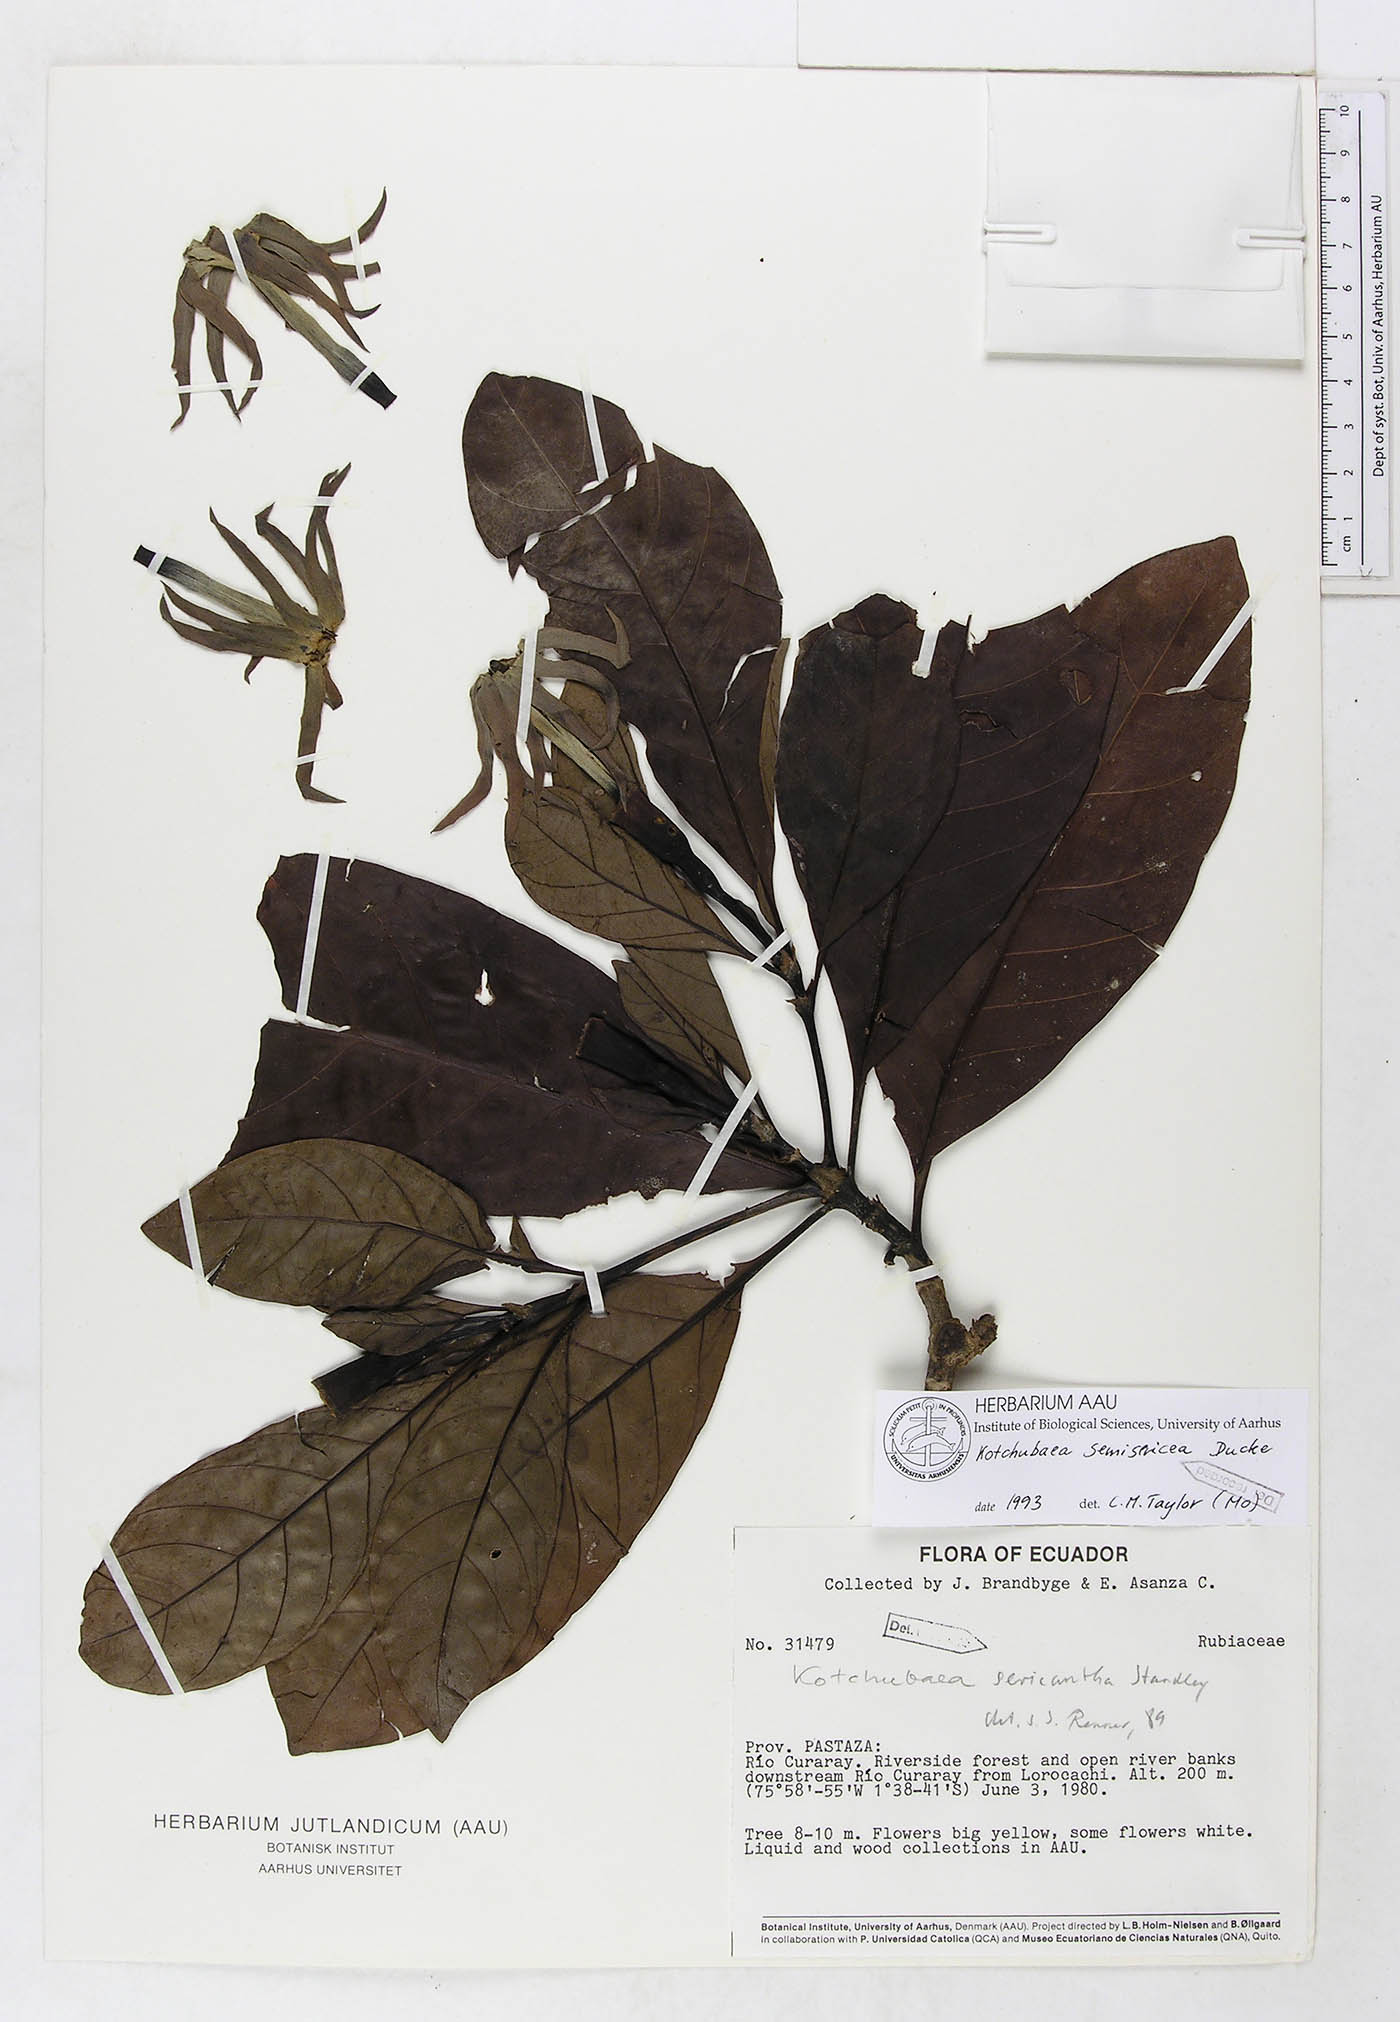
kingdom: Plantae
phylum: Tracheophyta
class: Magnoliopsida
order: Gentianales
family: Rubiaceae
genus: Kutchubaea
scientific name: Kutchubaea semisericea
